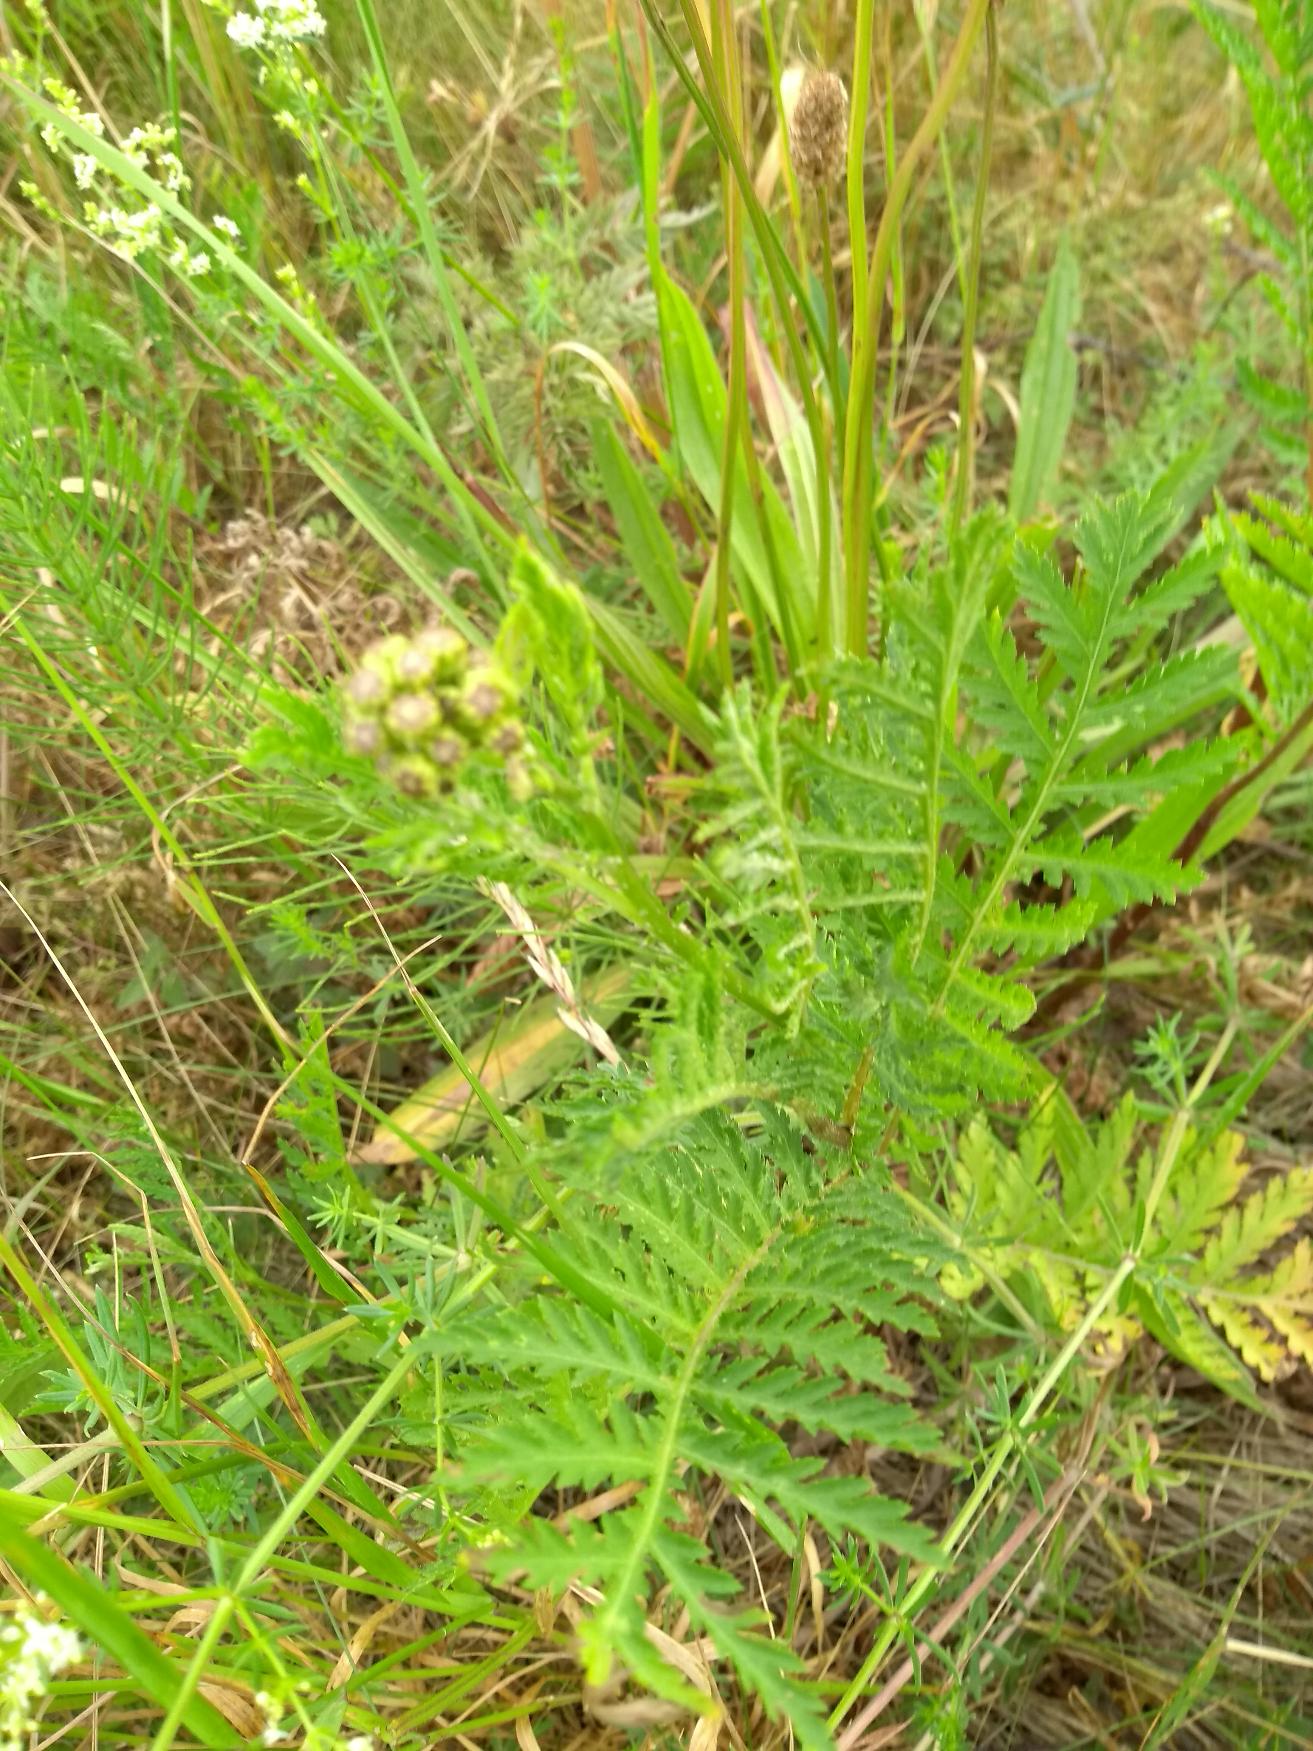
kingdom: Plantae
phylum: Tracheophyta
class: Magnoliopsida
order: Asterales
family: Asteraceae
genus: Tanacetum
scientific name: Tanacetum vulgare
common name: Rejnfan
